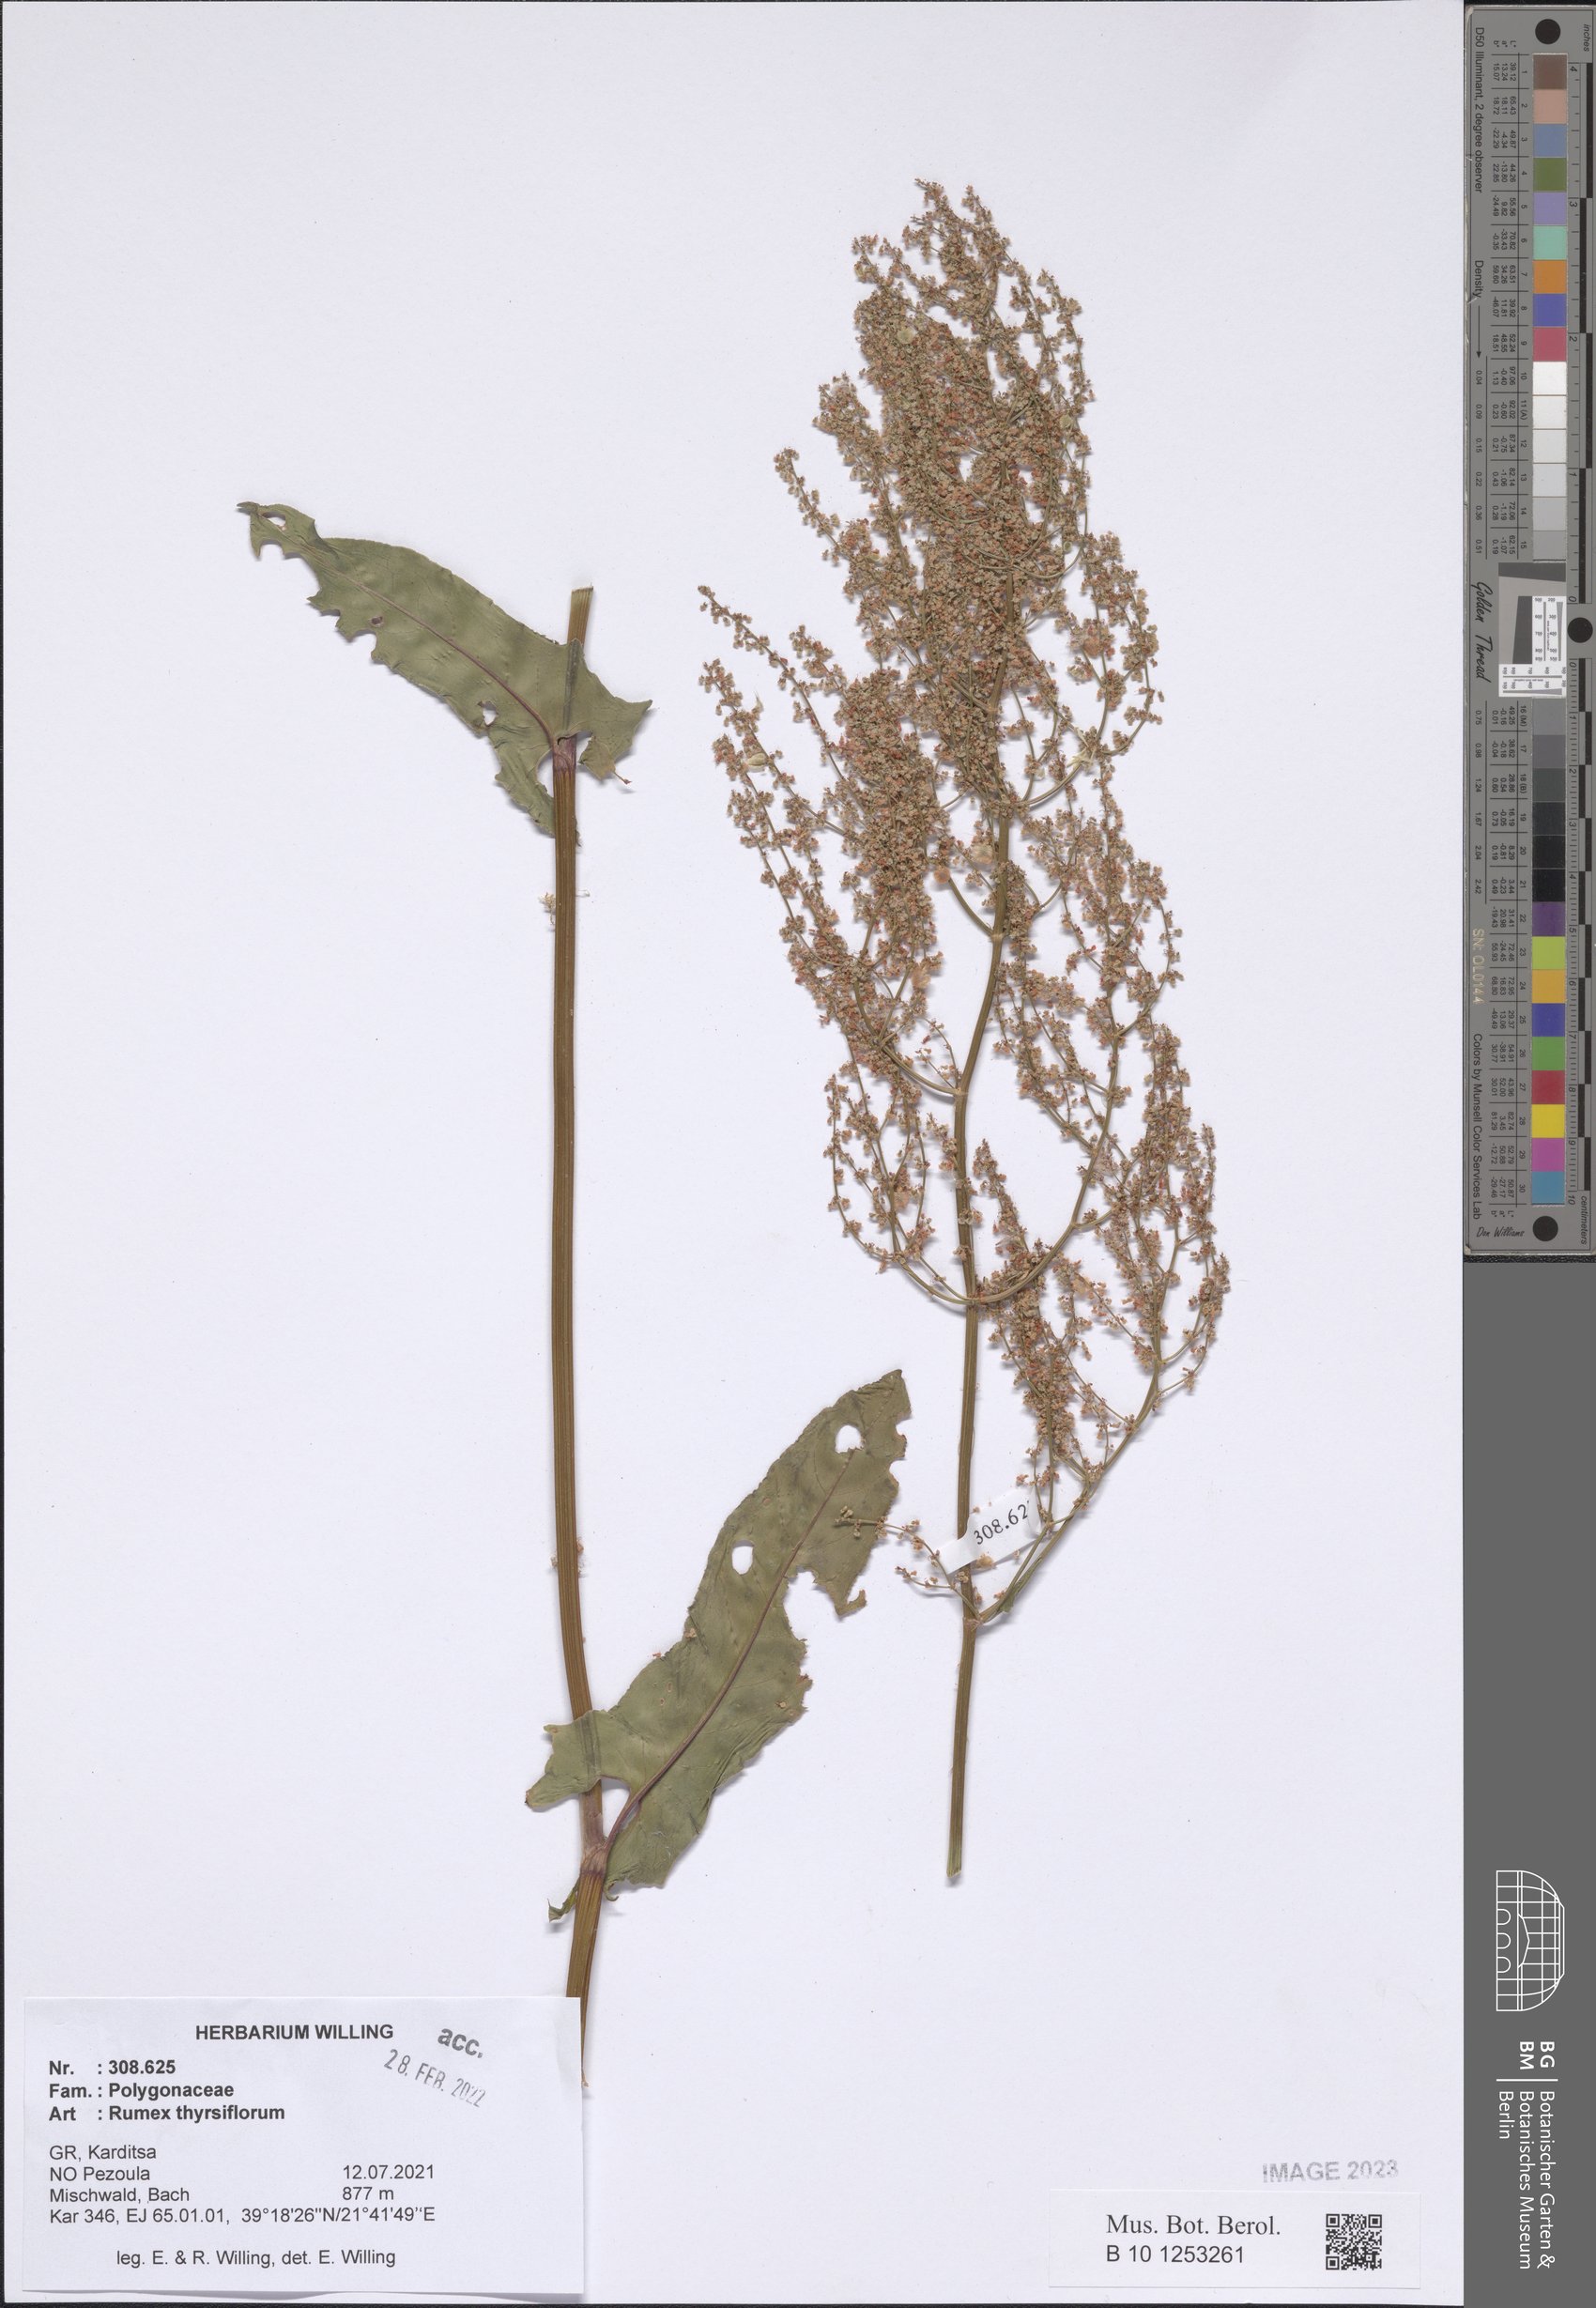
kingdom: Plantae
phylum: Tracheophyta
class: Magnoliopsida
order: Caryophyllales
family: Polygonaceae
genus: Rumex
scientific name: Rumex thyrsiflorus
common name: Garden sorrel
